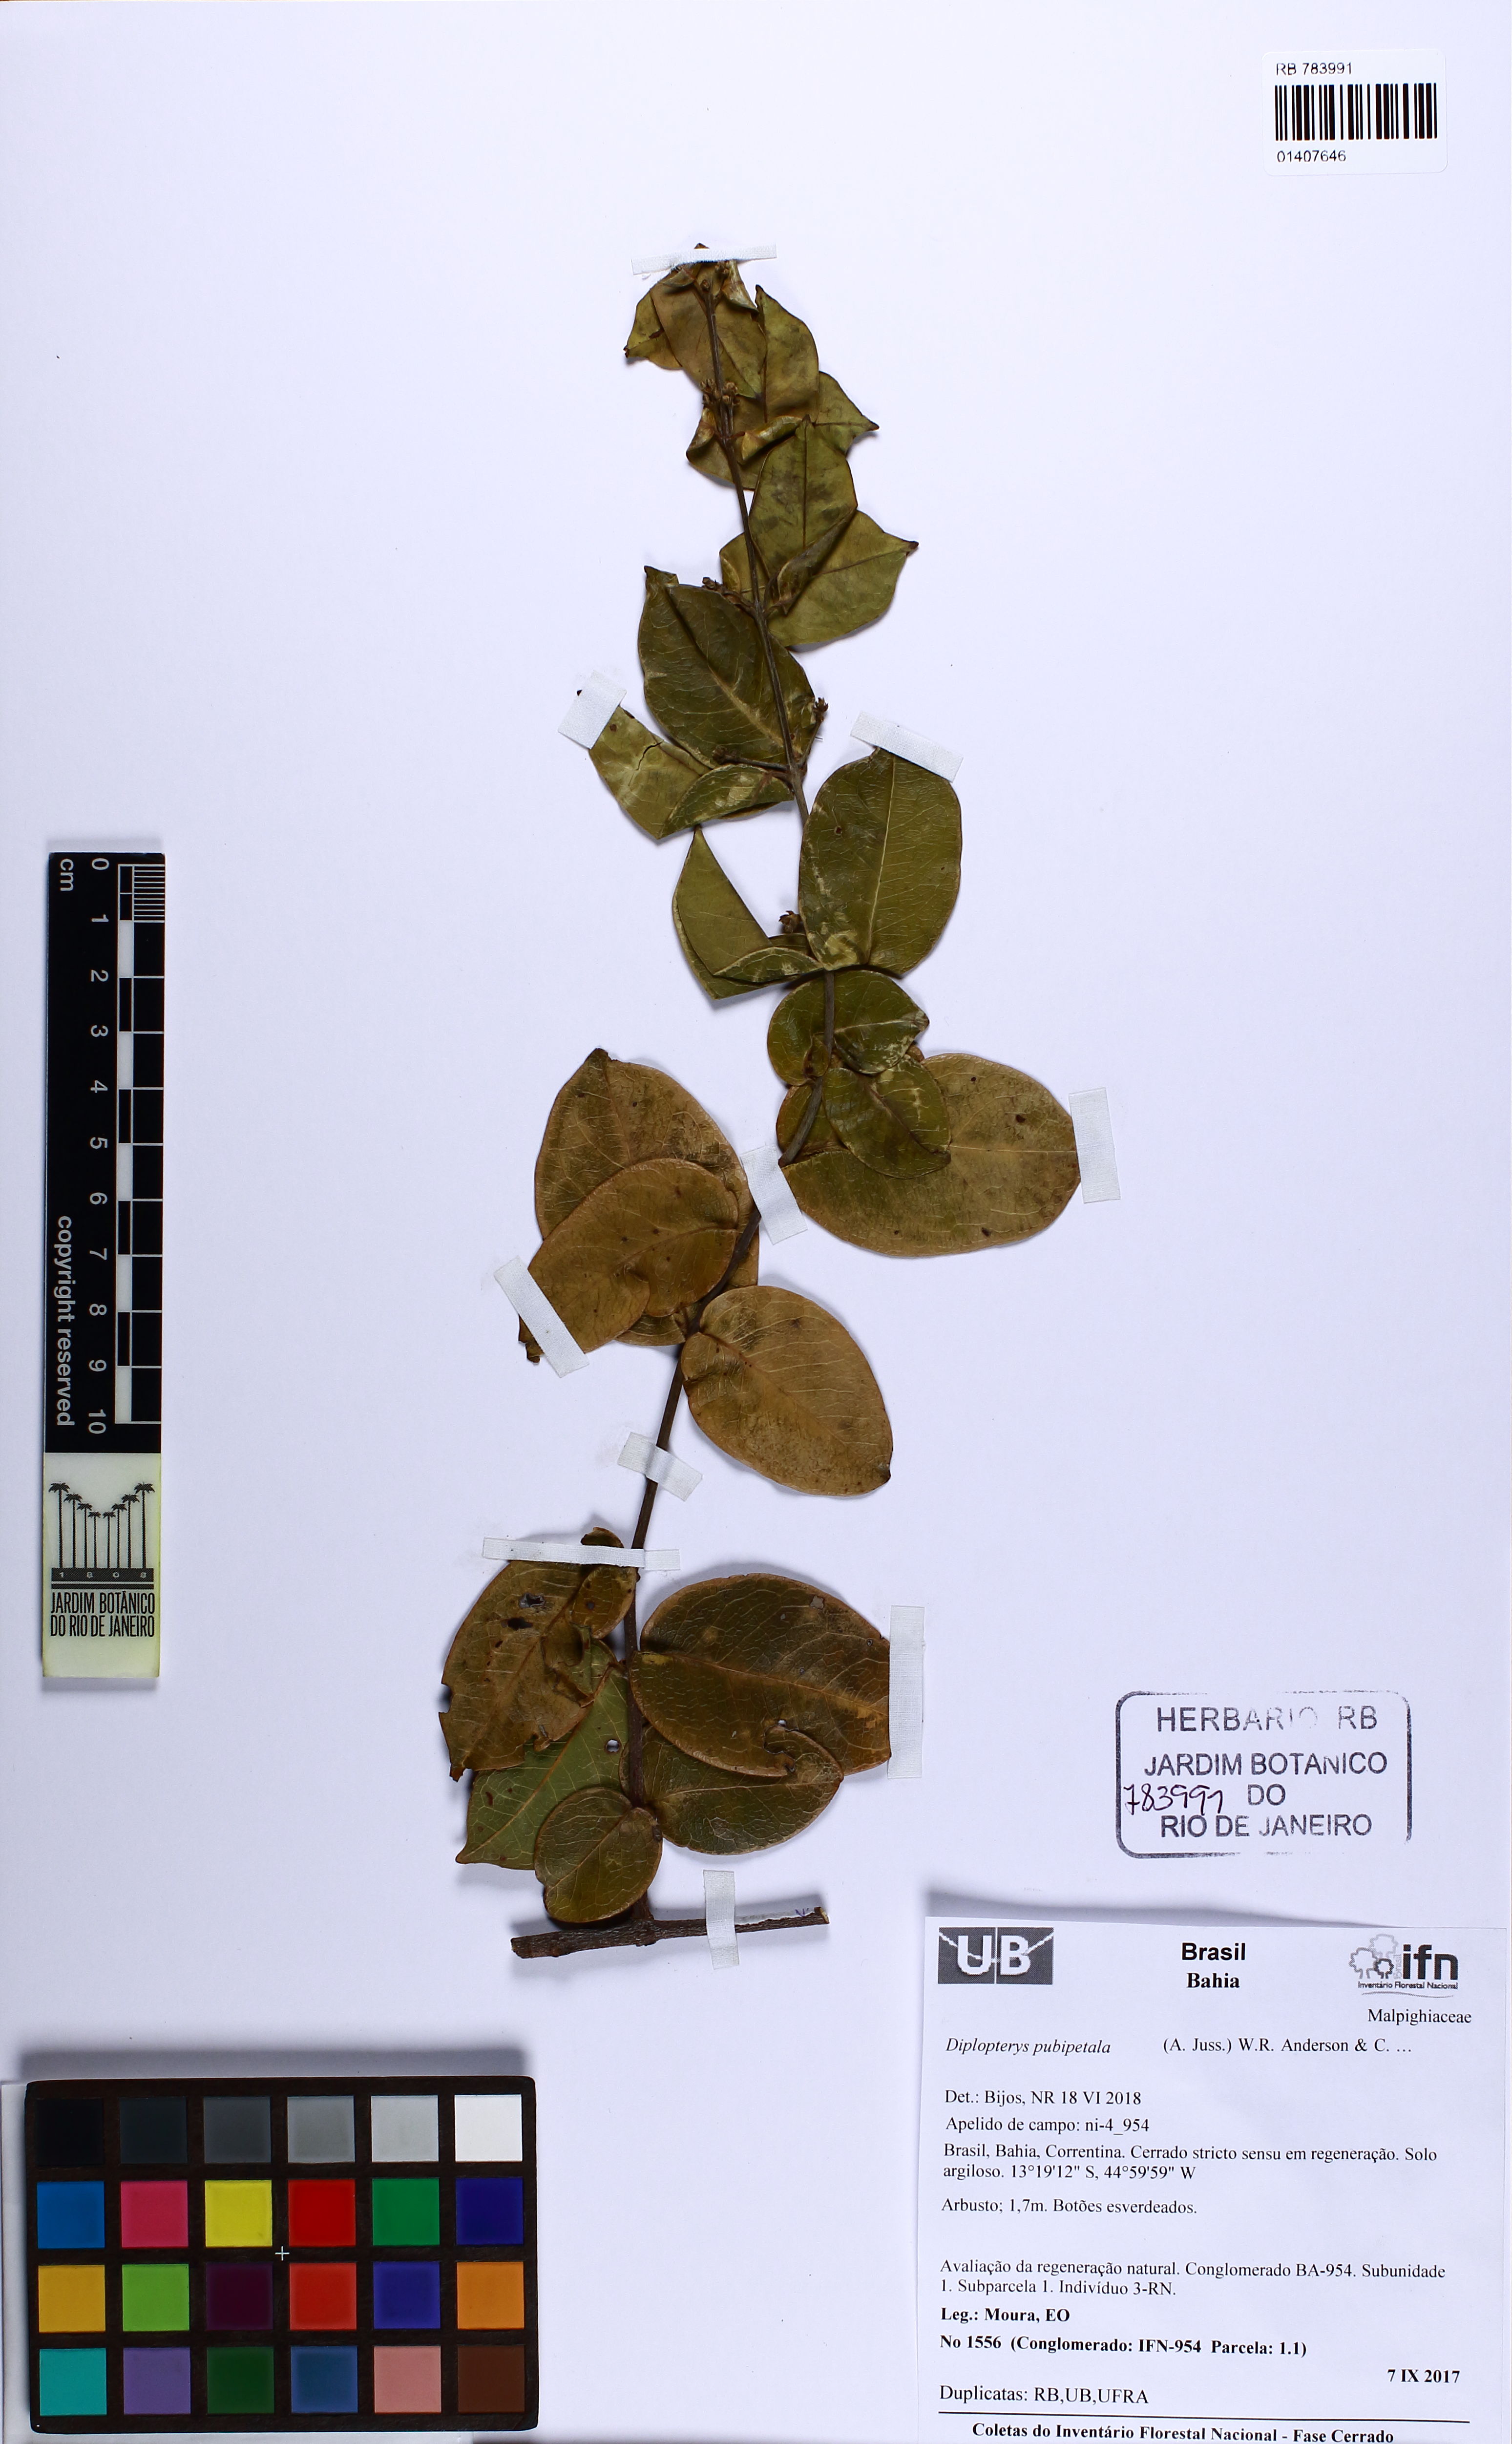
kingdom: Plantae
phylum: Tracheophyta
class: Magnoliopsida
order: Malpighiales
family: Malpighiaceae
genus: Diplopterys
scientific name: Diplopterys amplectens
